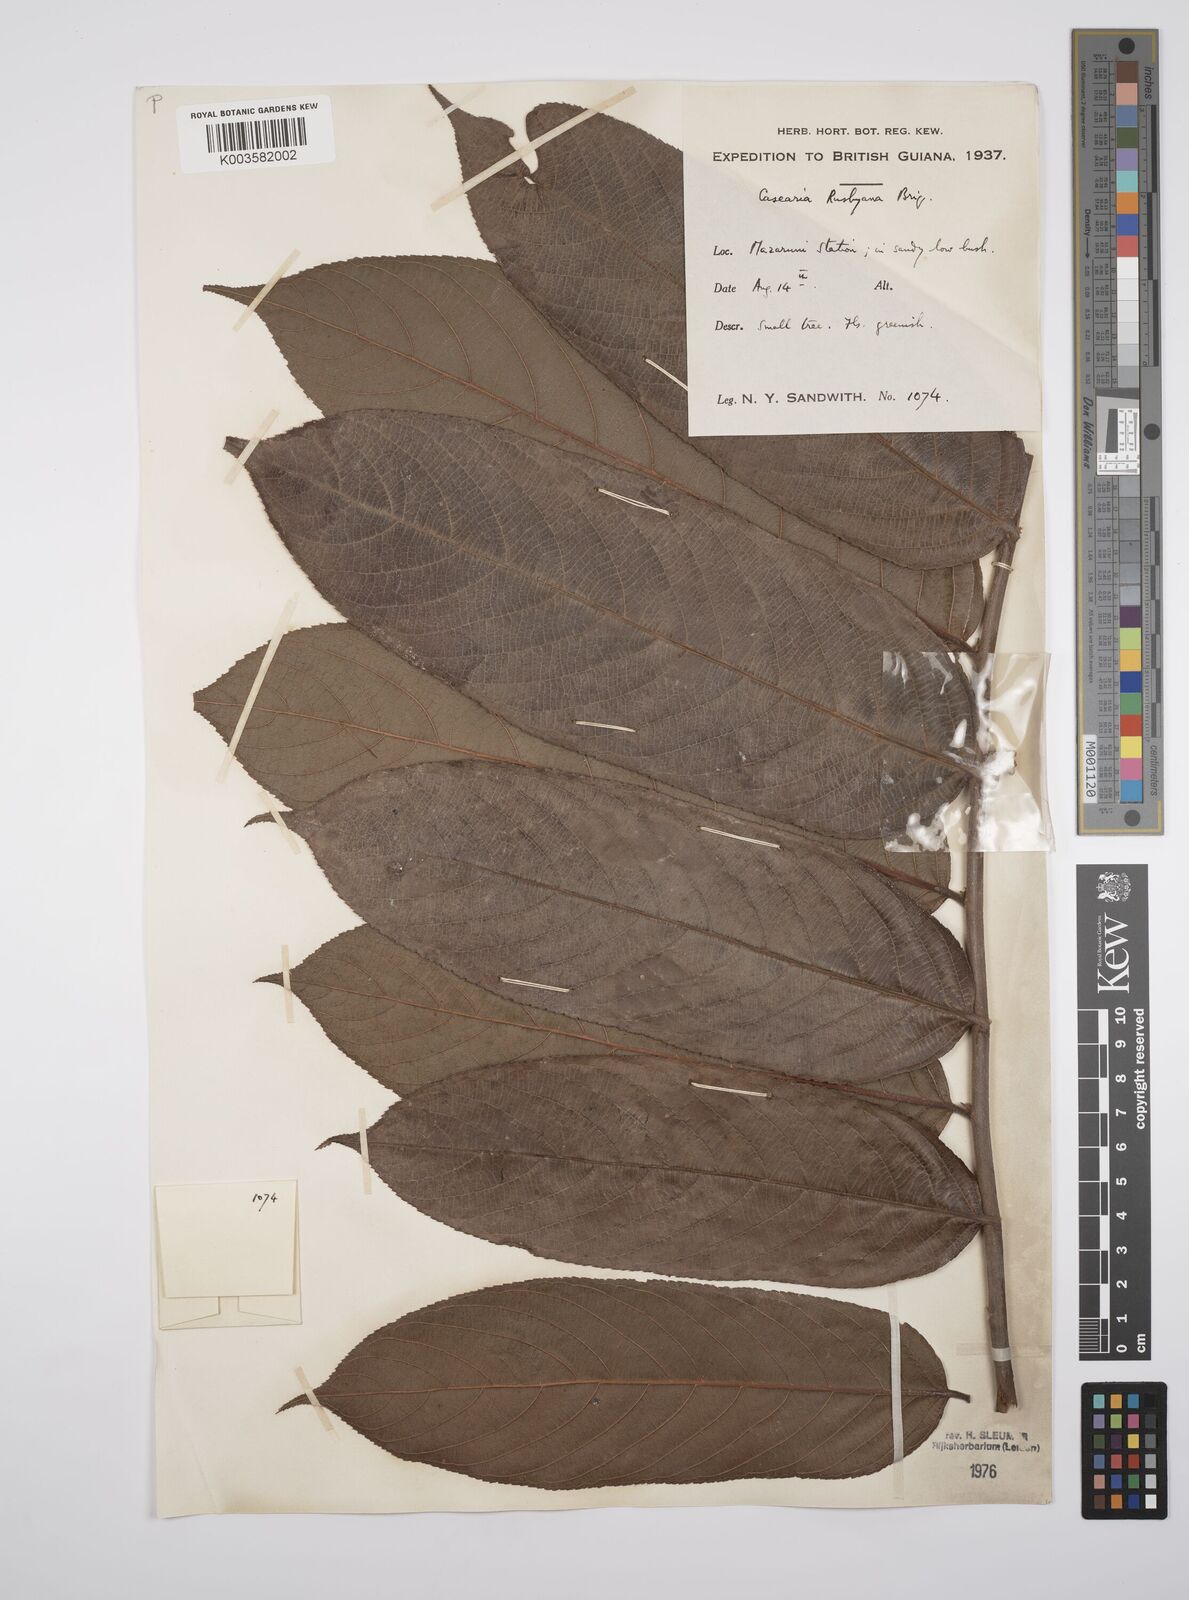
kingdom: Plantae
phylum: Tracheophyta
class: Magnoliopsida
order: Malpighiales
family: Salicaceae
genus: Casearia
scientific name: Casearia rusbyana
